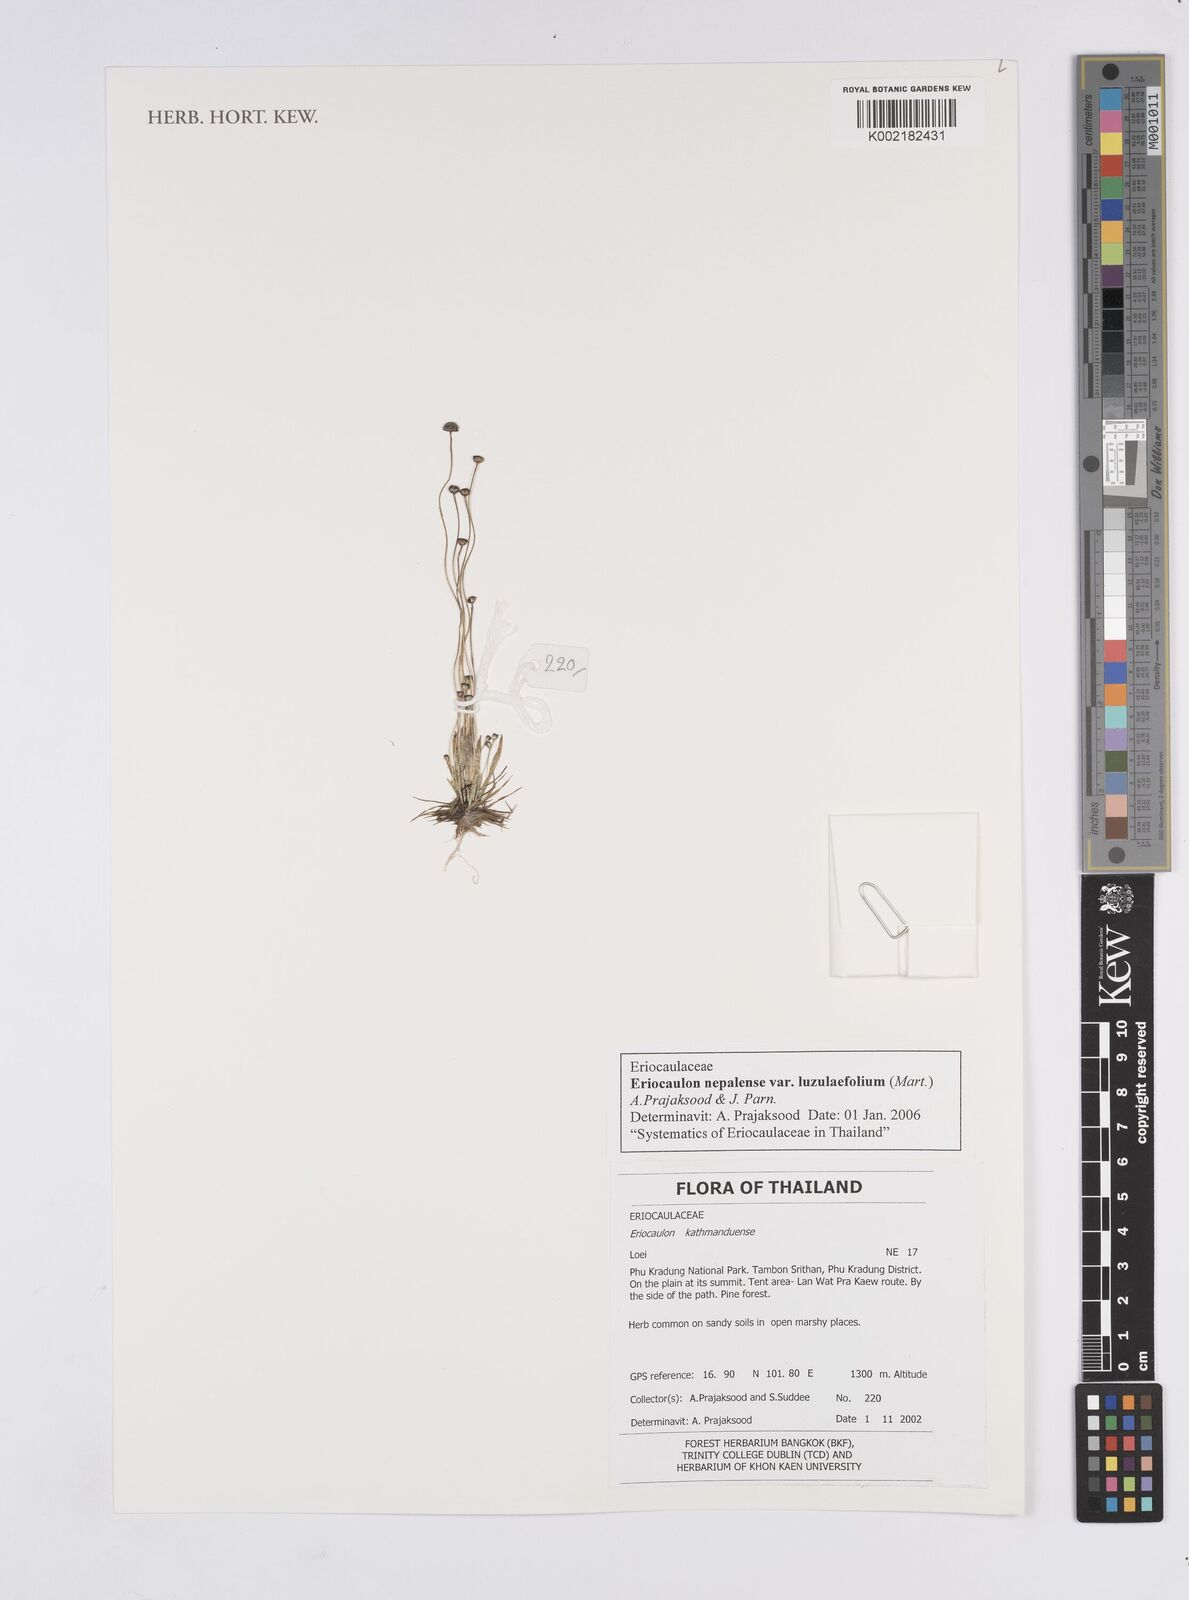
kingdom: Plantae
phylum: Tracheophyta
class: Liliopsida
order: Poales
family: Eriocaulaceae
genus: Eriocaulon
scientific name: Eriocaulon nepalense
